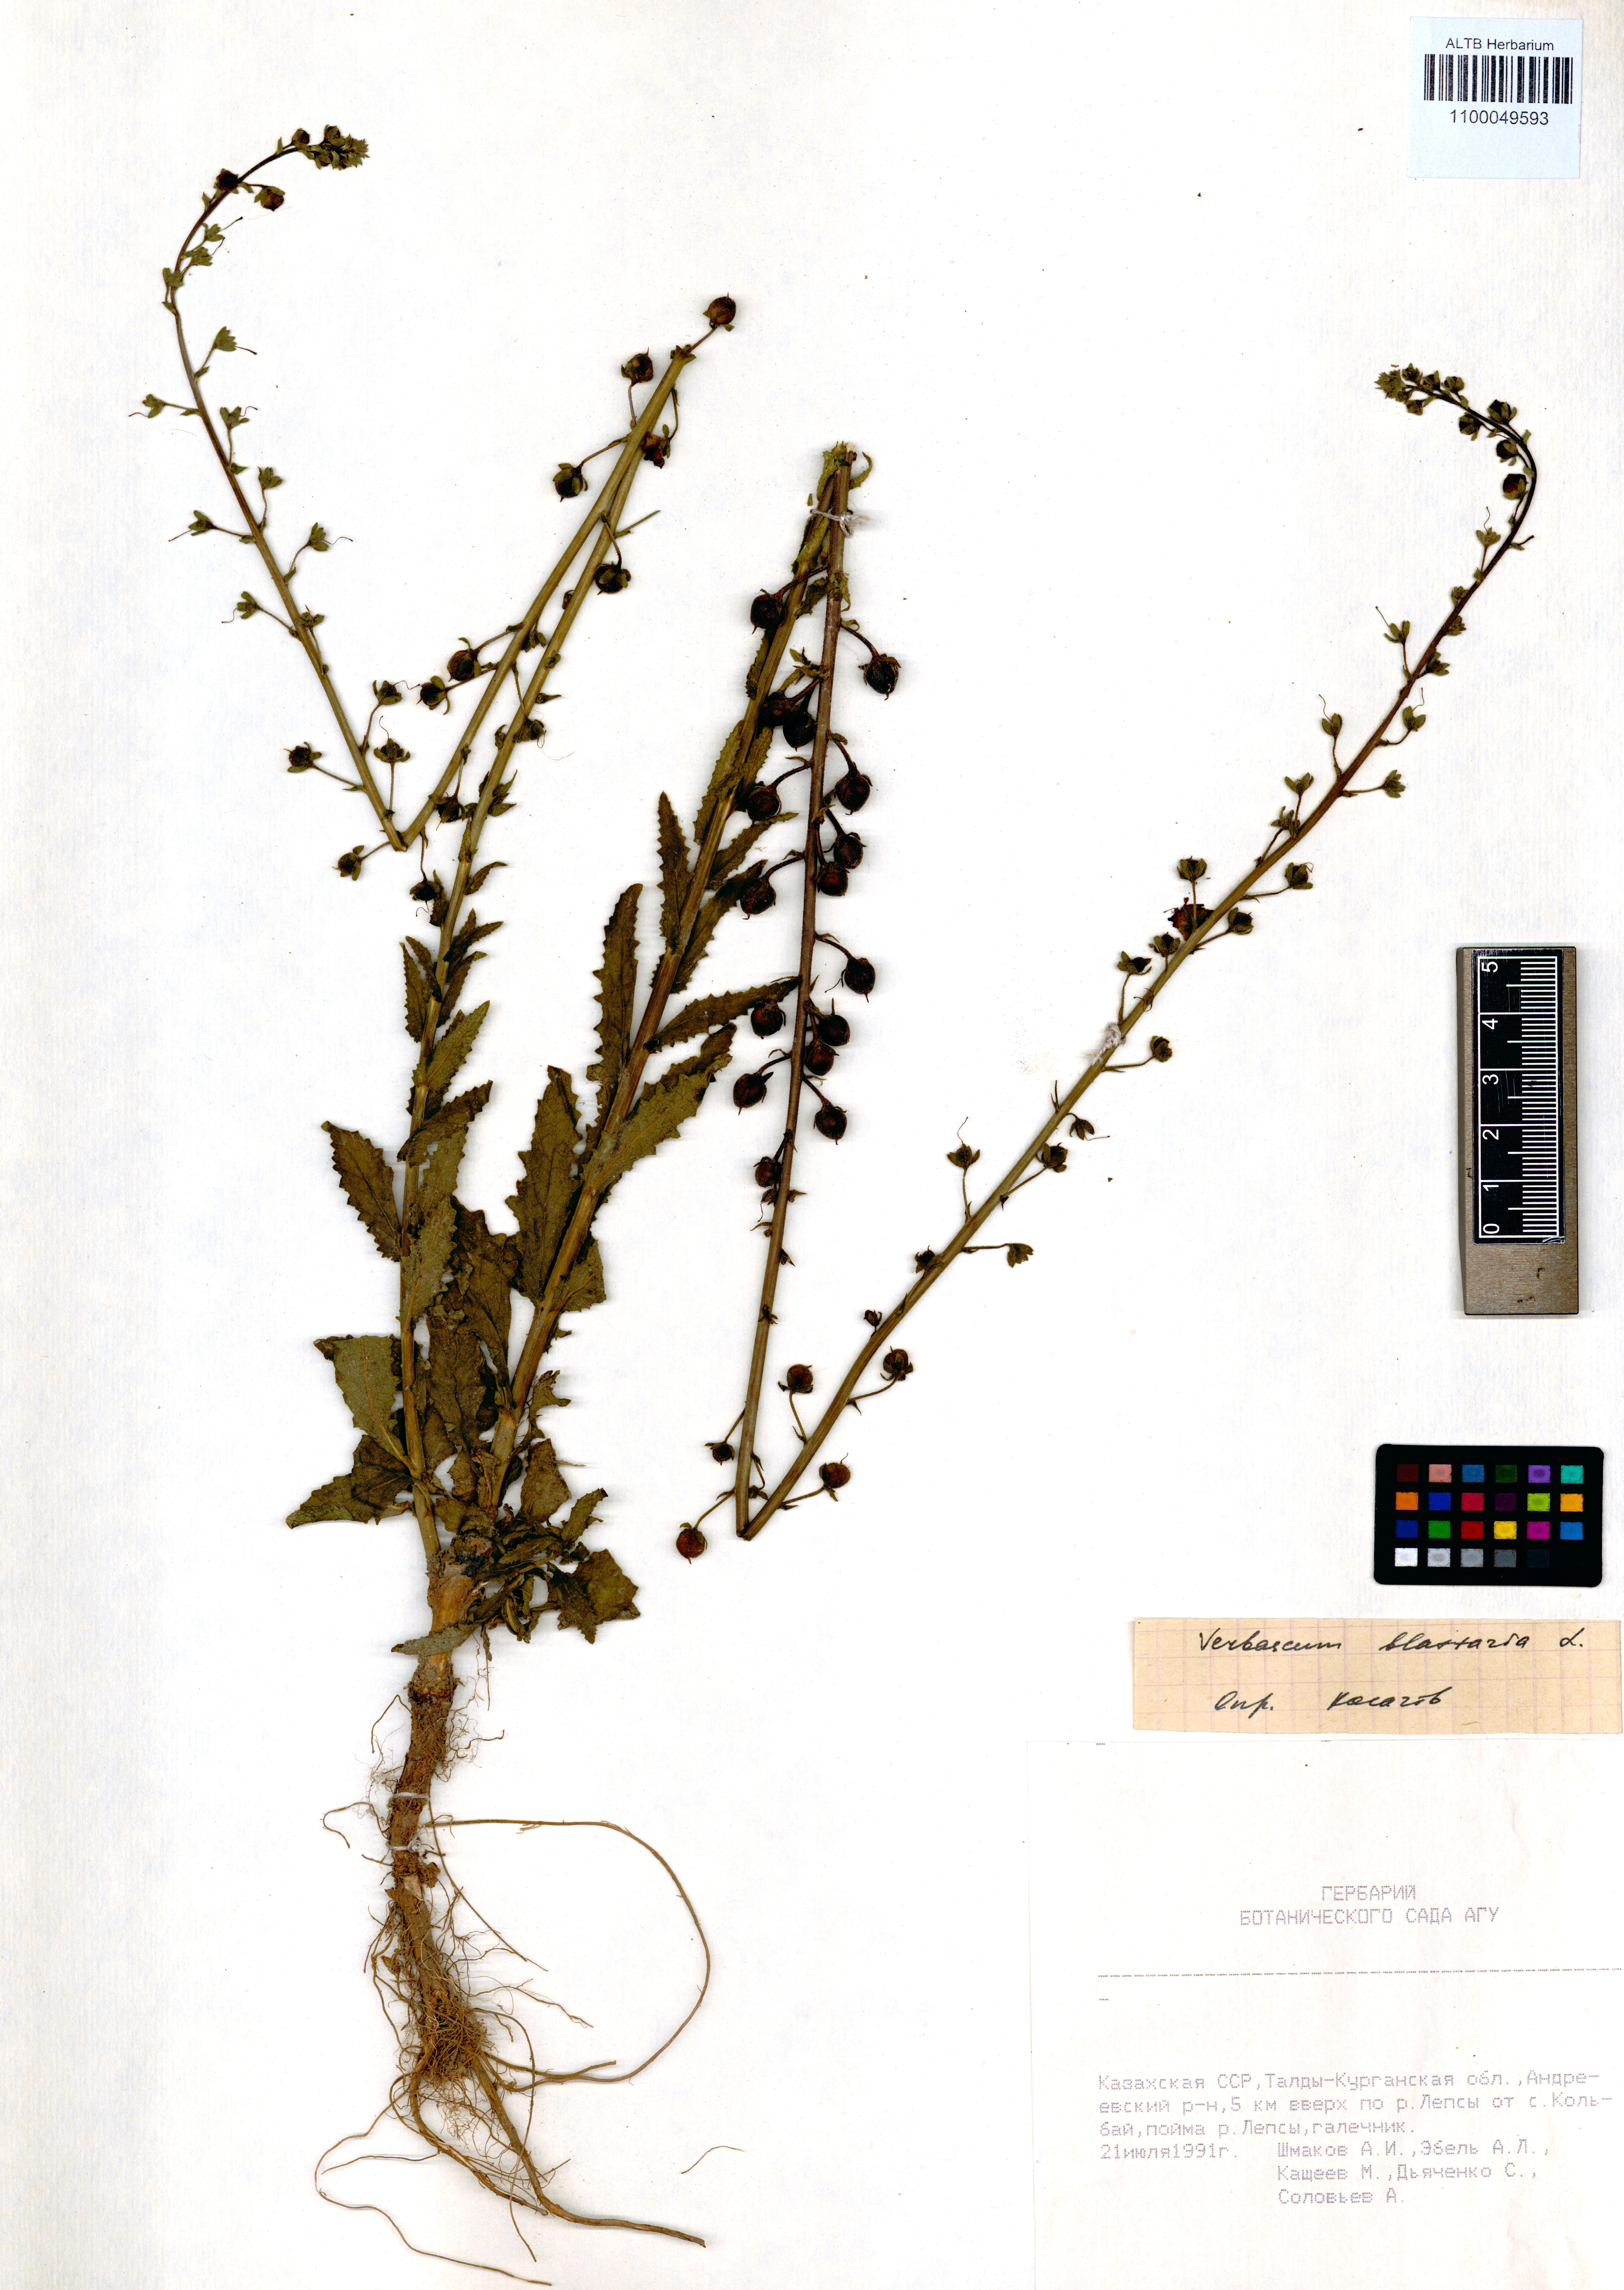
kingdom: Plantae
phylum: Tracheophyta
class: Magnoliopsida
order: Lamiales
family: Scrophulariaceae
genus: Verbascum
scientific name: Verbascum blattaria
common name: Moth mullein
